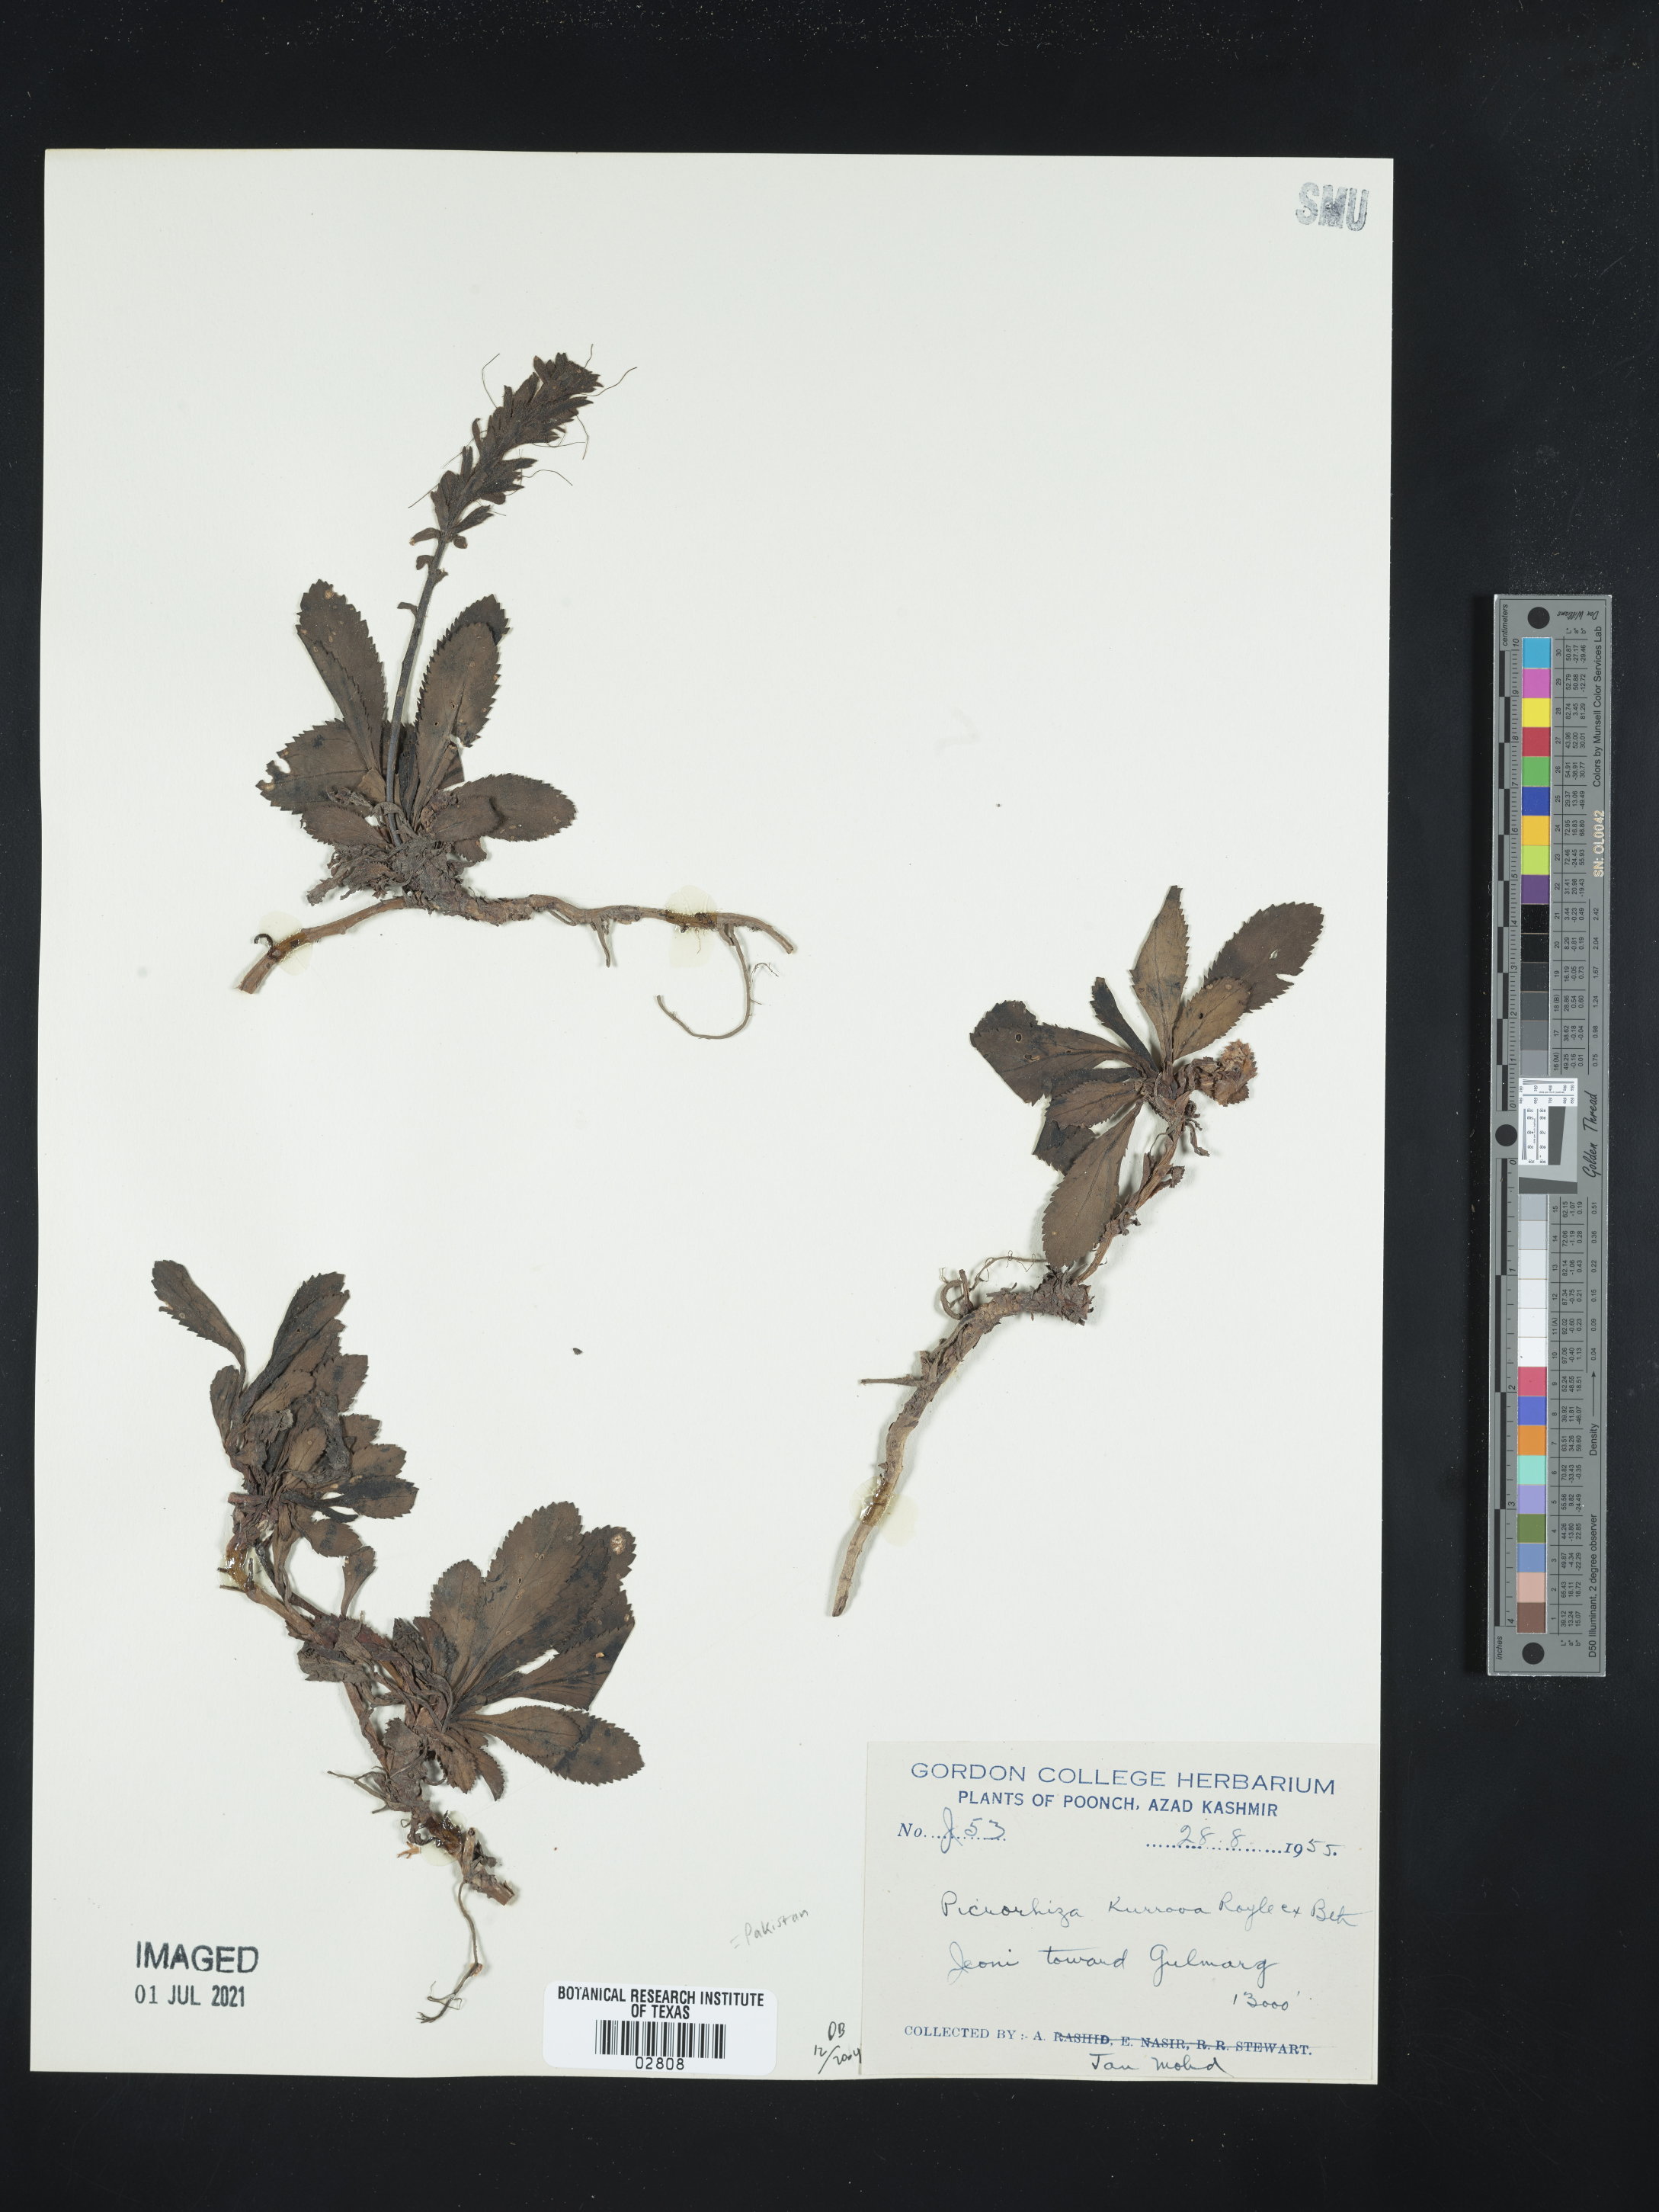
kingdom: Plantae
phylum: Tracheophyta
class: Magnoliopsida
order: Lamiales
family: Plantaginaceae
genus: Picrorhiza
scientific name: Picrorhiza kurroa
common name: Picrorrhiza
